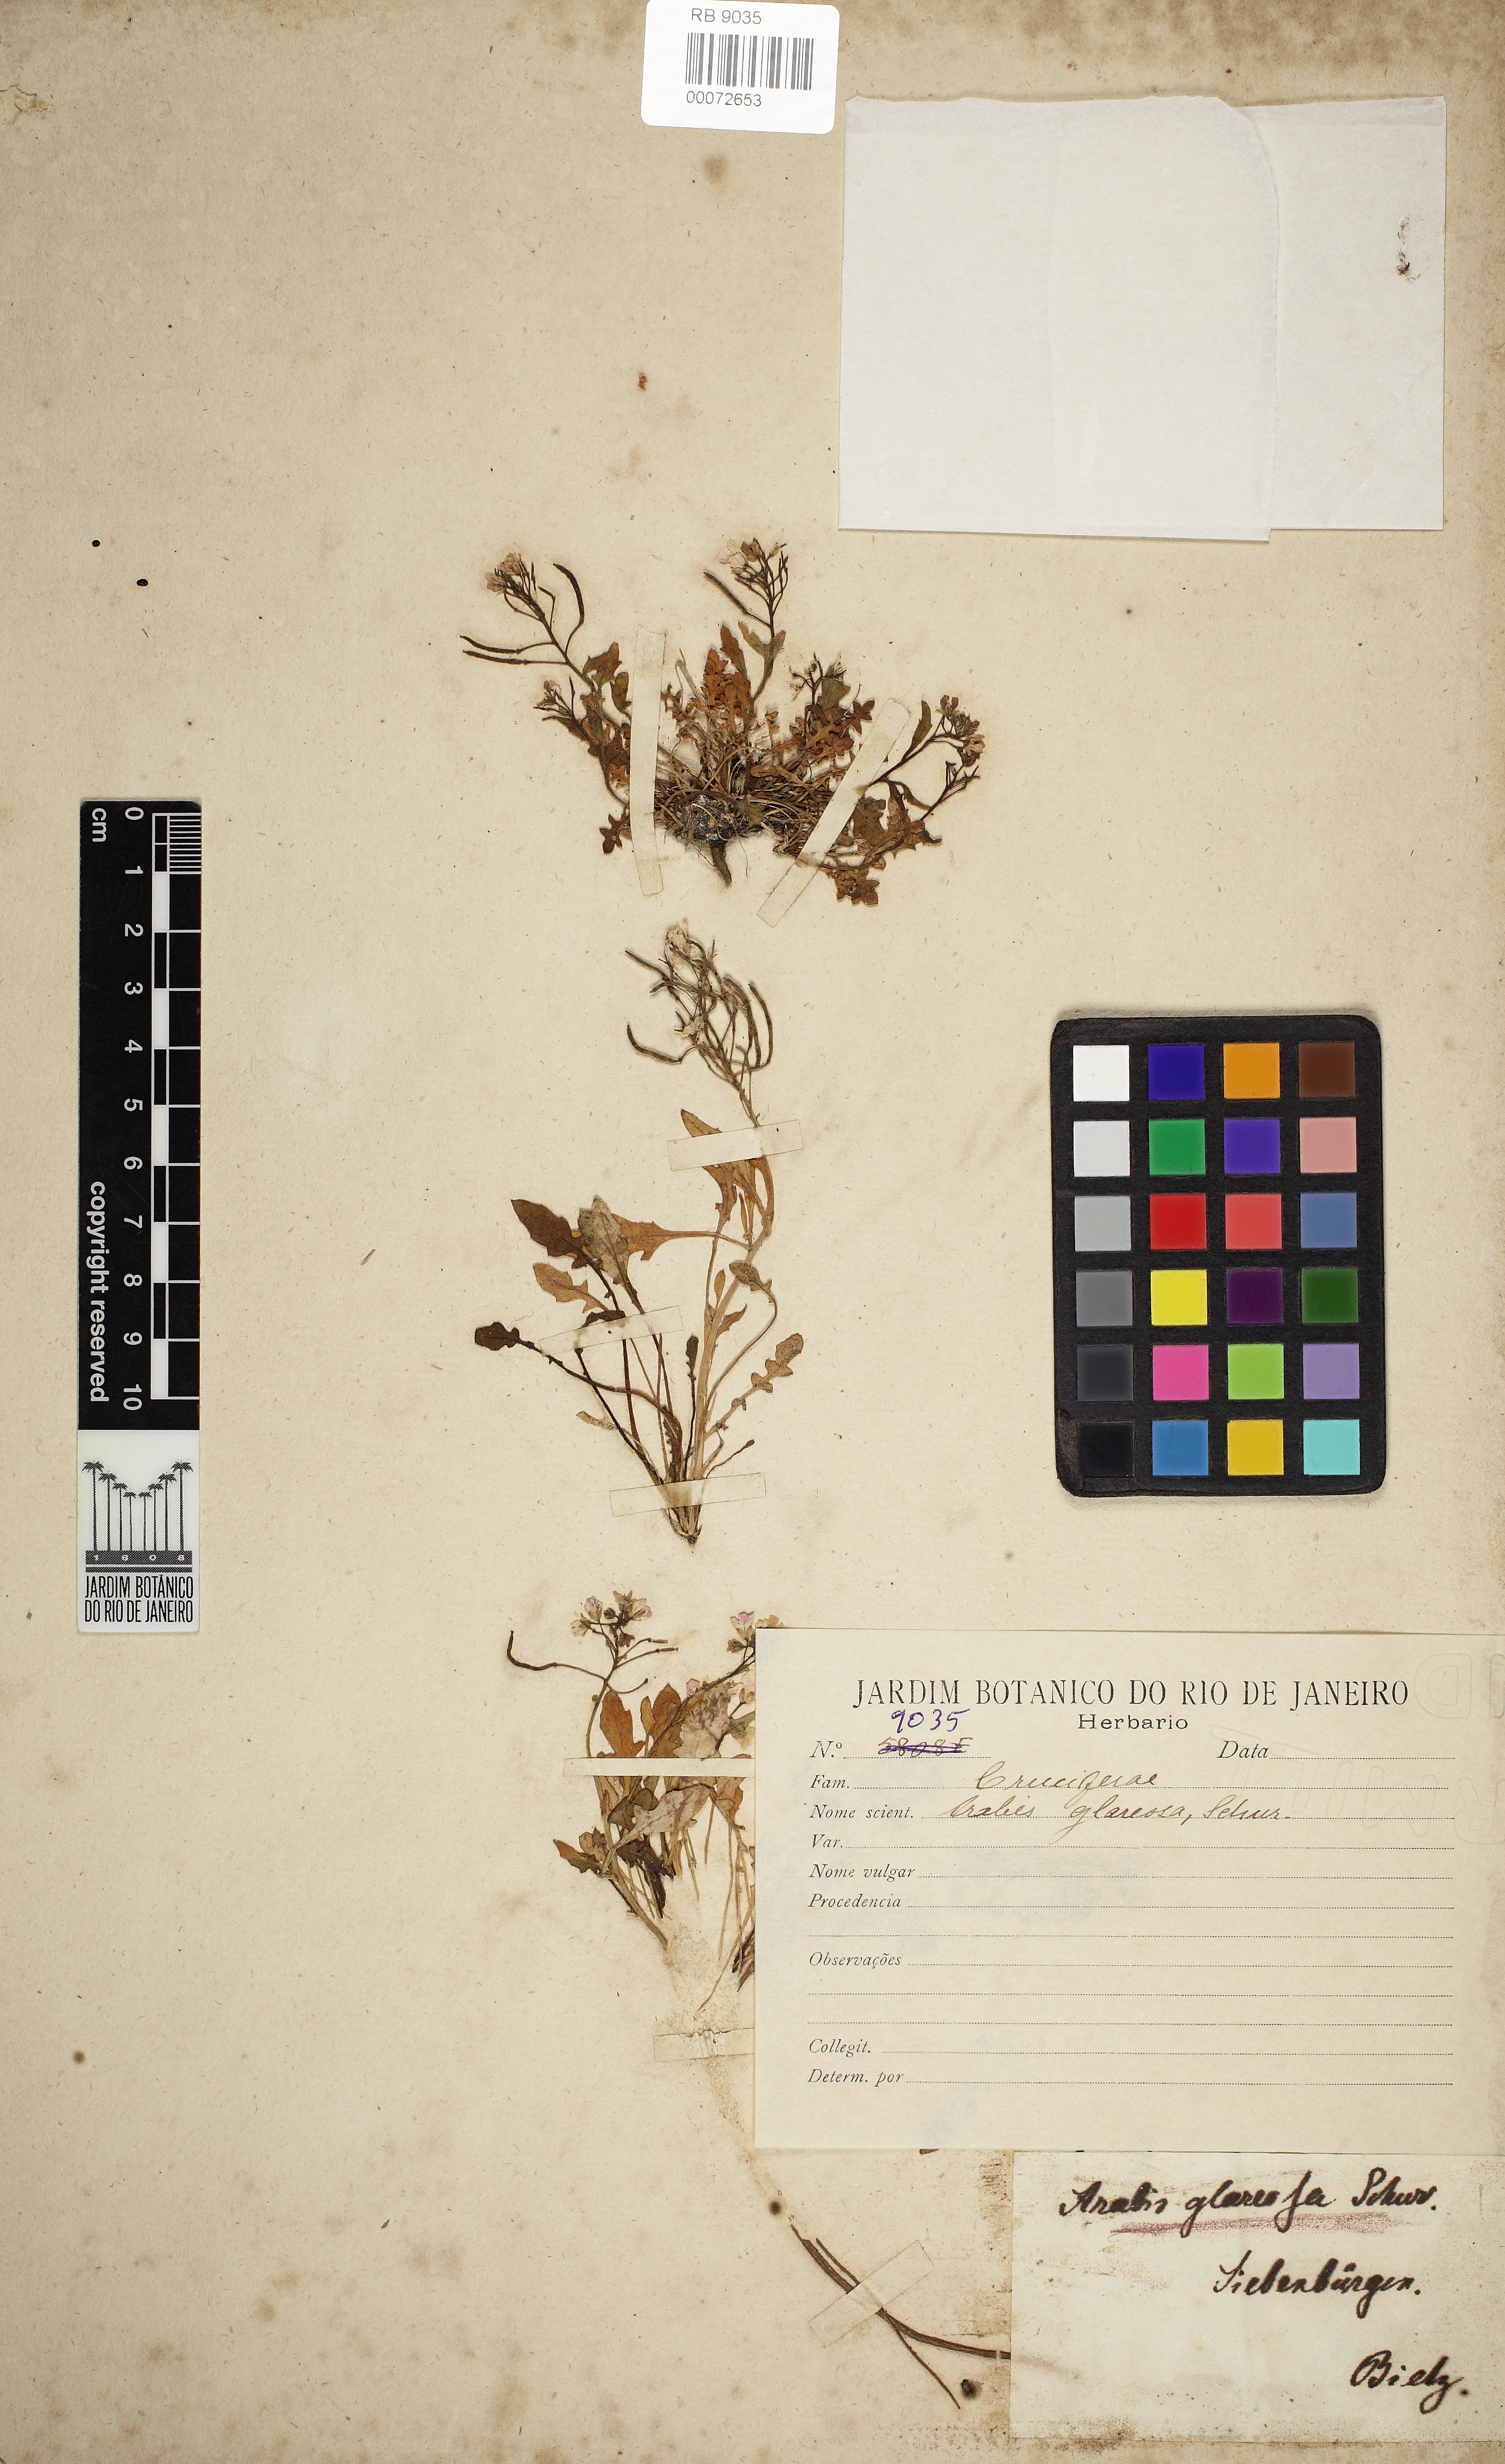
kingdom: Plantae
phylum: Tracheophyta
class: Magnoliopsida
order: Brassicales
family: Brassicaceae
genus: Arabidopsis
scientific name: Arabidopsis neglecta
